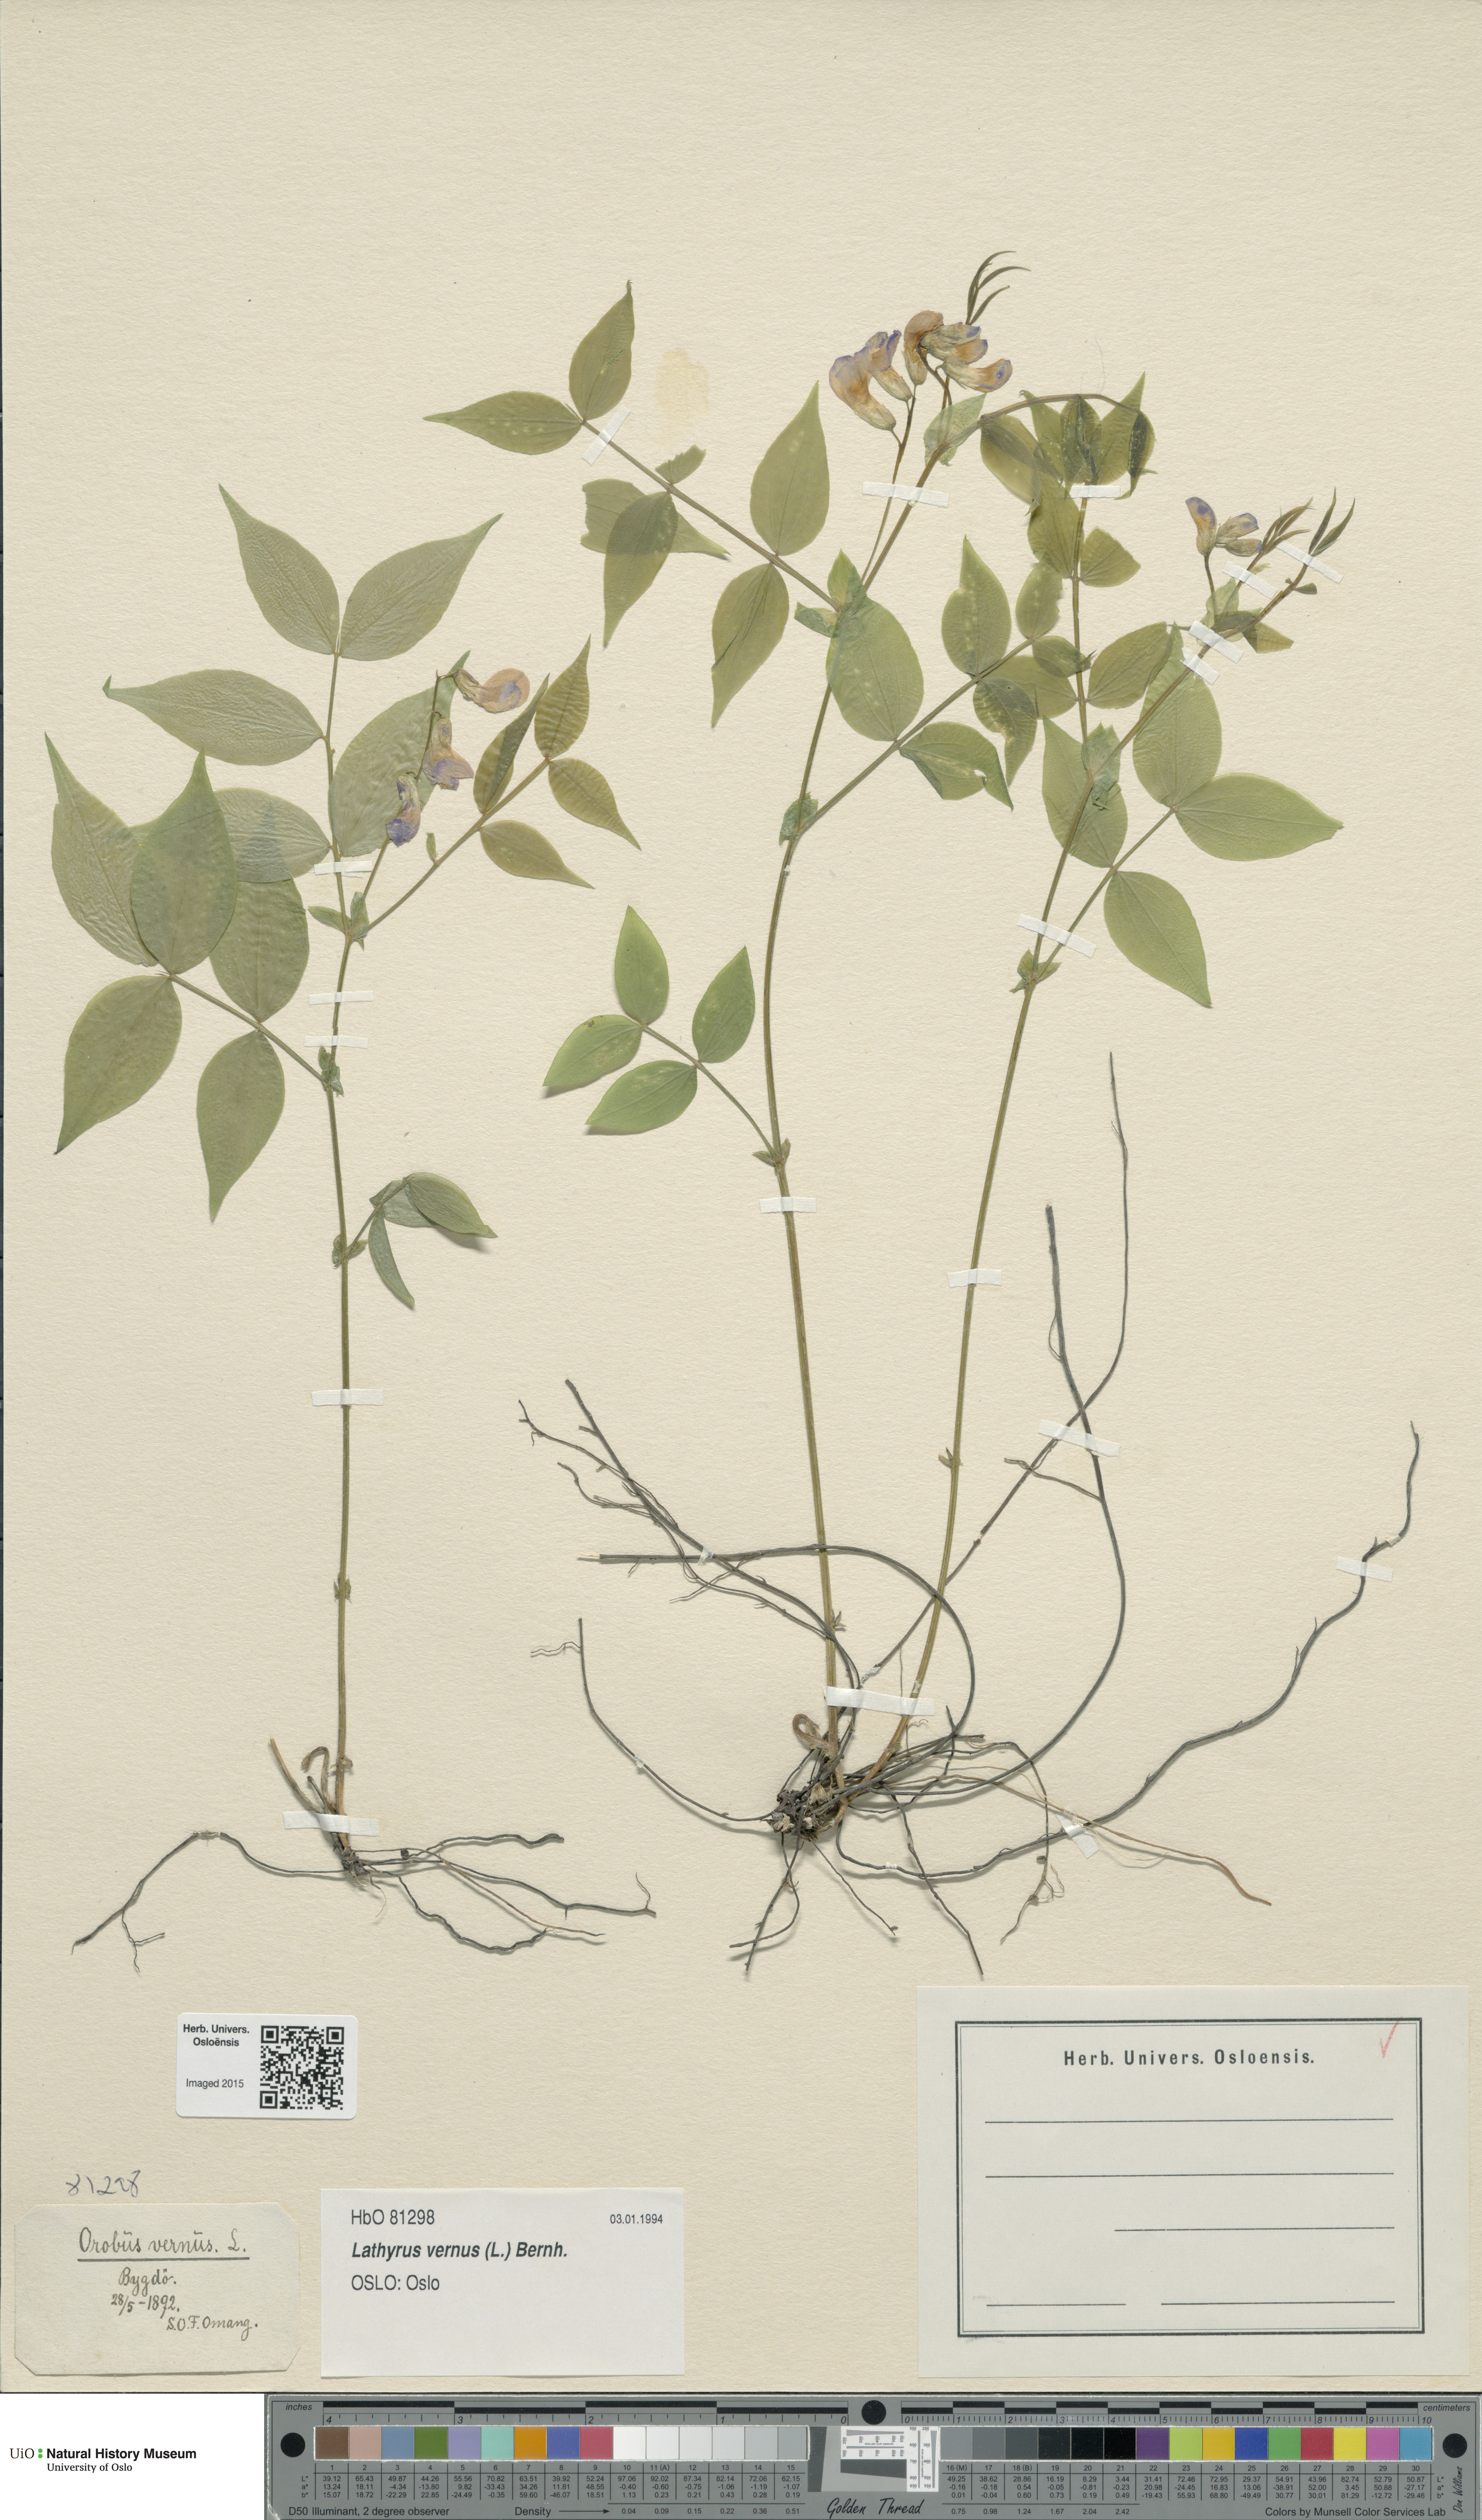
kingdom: Plantae
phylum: Tracheophyta
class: Magnoliopsida
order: Fabales
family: Fabaceae
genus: Lathyrus
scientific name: Lathyrus vernus
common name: Spring pea
